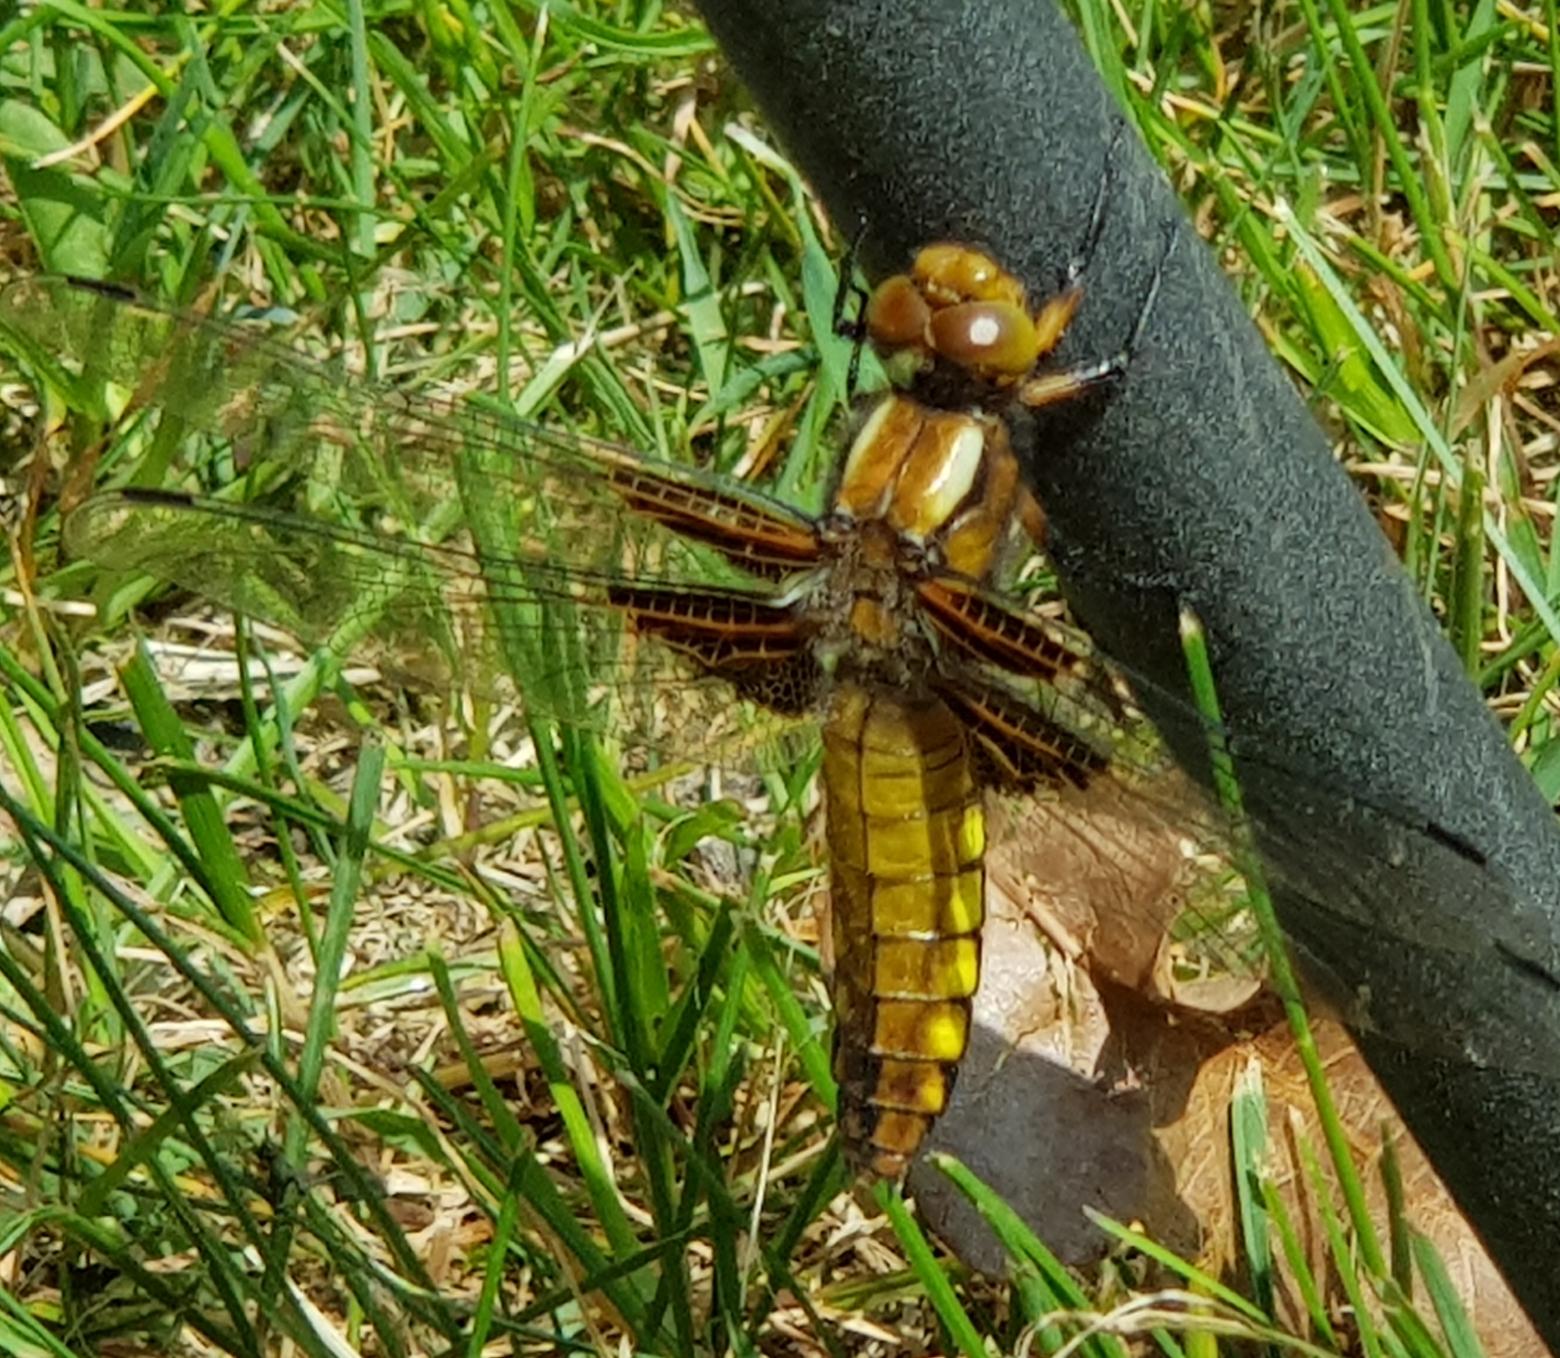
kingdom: Animalia
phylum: Arthropoda
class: Insecta
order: Odonata
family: Libellulidae
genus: Libellula
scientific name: Libellula depressa
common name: Blå libel
